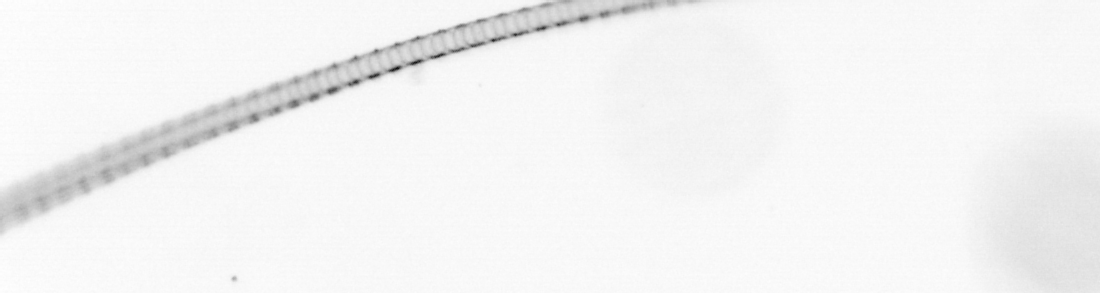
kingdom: Chromista
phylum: Ochrophyta
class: Bacillariophyceae
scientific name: Bacillariophyceae
